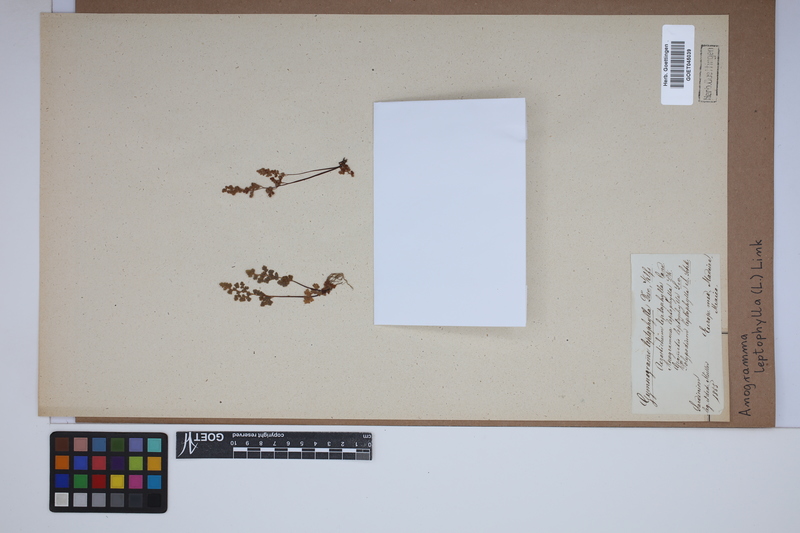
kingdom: Plantae
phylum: Tracheophyta
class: Polypodiopsida
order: Polypodiales
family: Pteridaceae
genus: Anogramma
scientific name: Anogramma leptophylla
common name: Jersey fern
